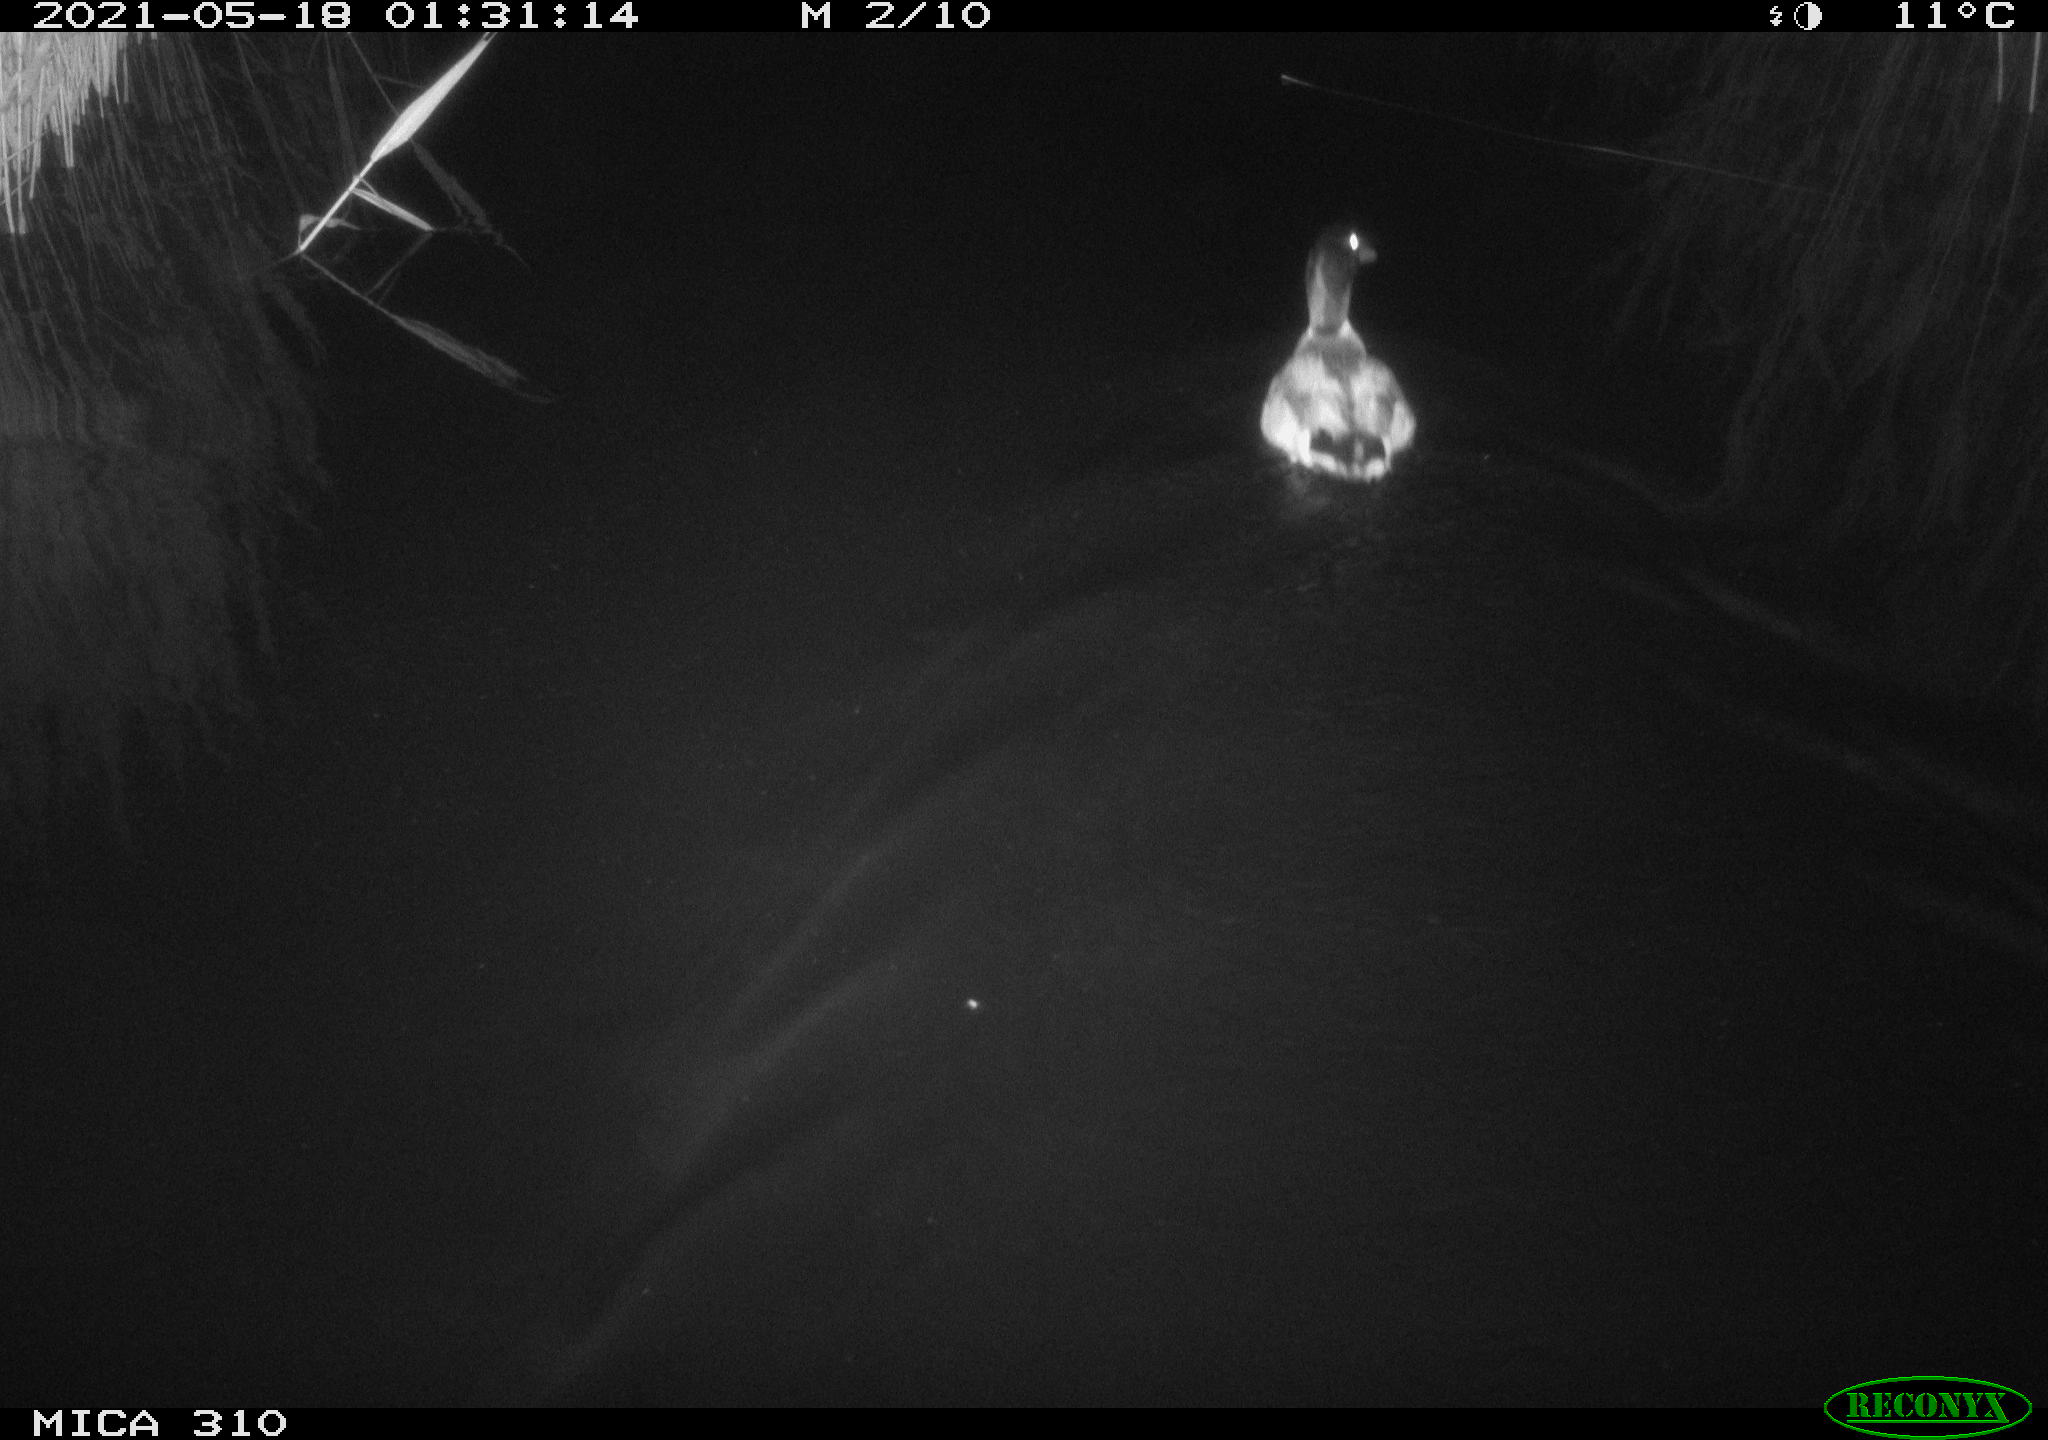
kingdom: Animalia
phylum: Chordata
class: Aves
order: Anseriformes
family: Anatidae
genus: Anas
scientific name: Anas platyrhynchos
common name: Mallard
